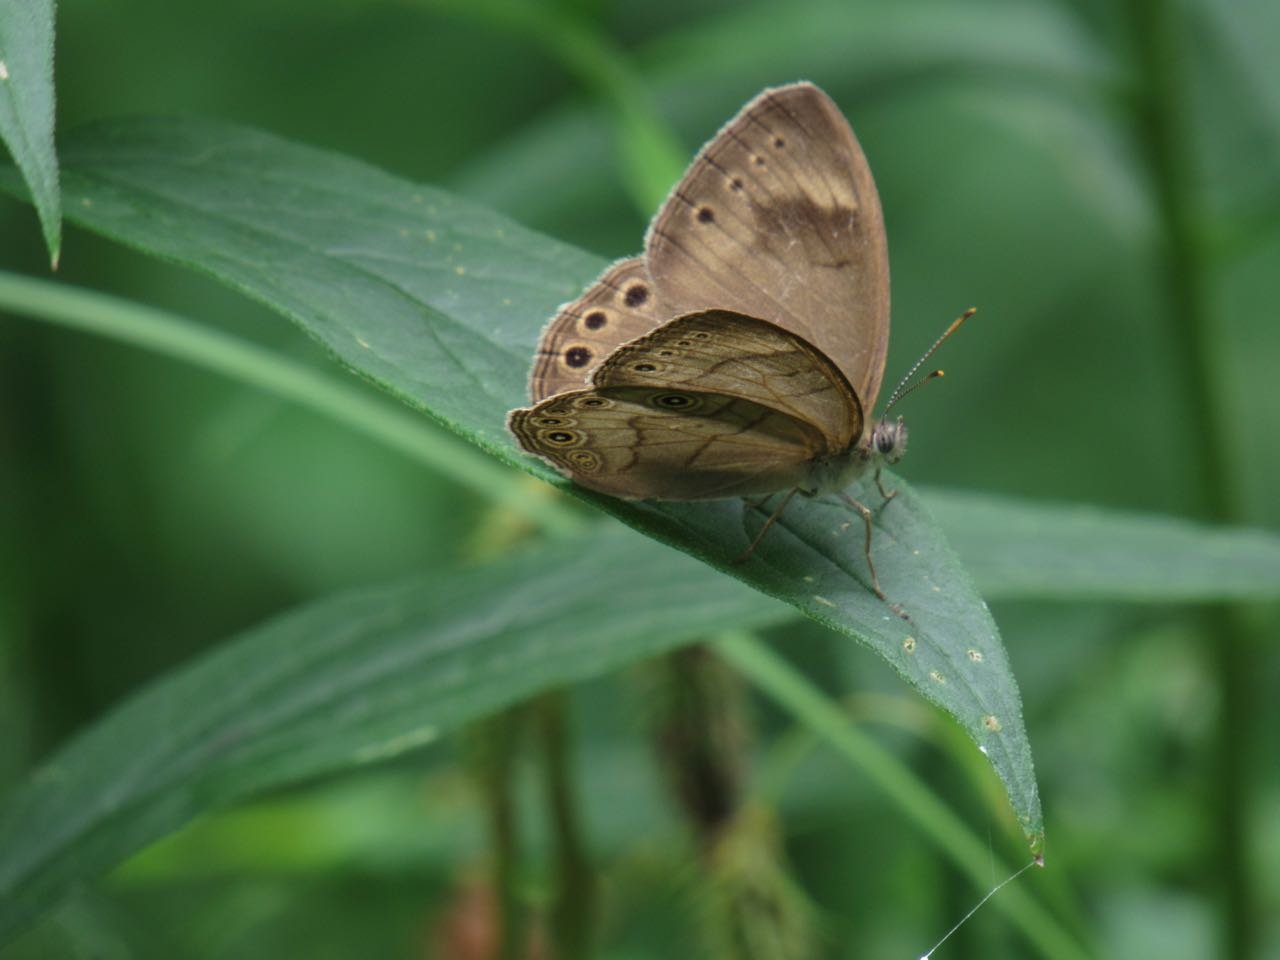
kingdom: Animalia
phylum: Arthropoda
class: Insecta
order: Lepidoptera
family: Nymphalidae
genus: Lethe
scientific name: Lethe eurydice
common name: Appalachian Eyed Brown
